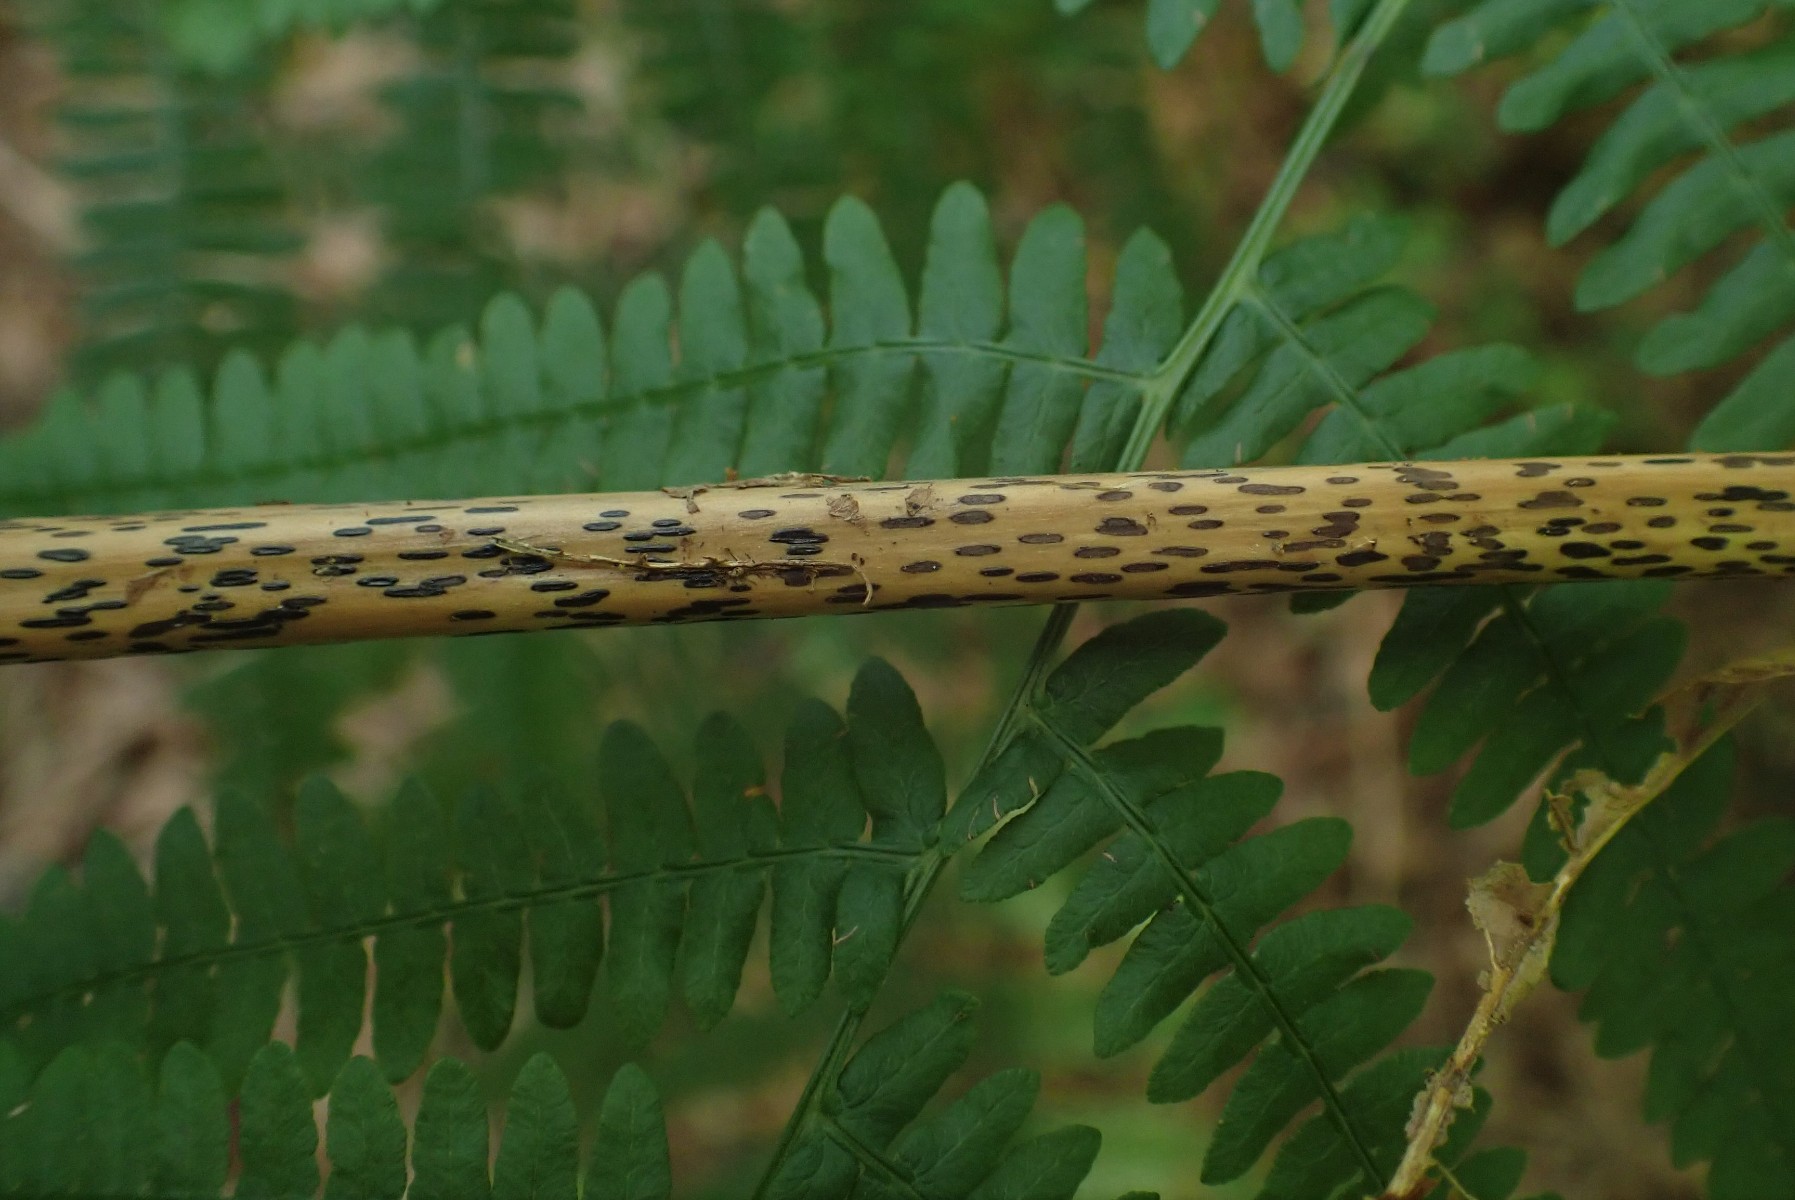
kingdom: Fungi
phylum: Ascomycota
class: Dothideomycetes
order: Pleosporales
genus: Rhopographus
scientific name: Rhopographus filicinus
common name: Bracken map
